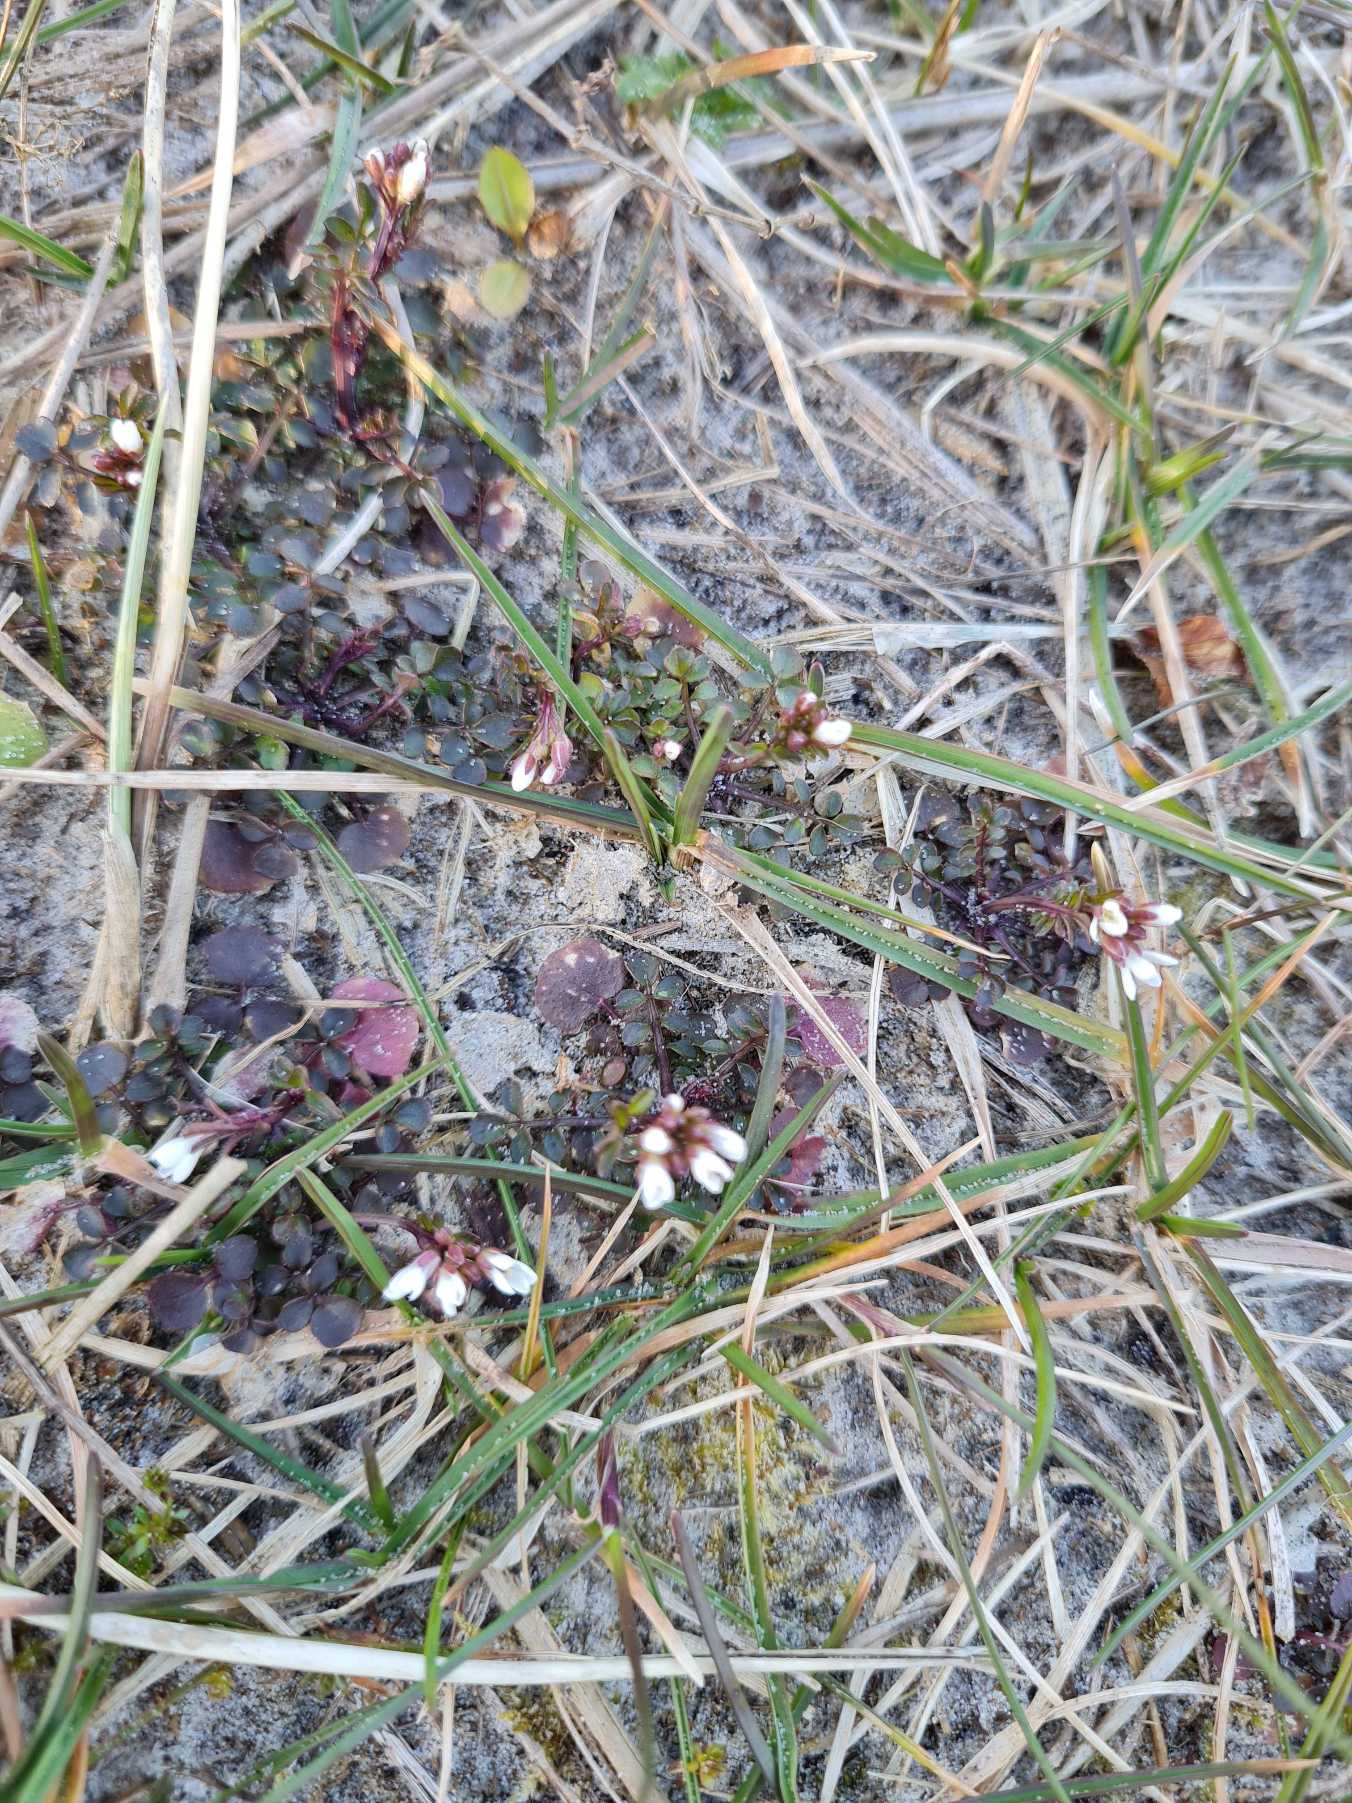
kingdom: Plantae
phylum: Tracheophyta
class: Magnoliopsida
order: Brassicales
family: Brassicaceae
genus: Cardamine
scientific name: Cardamine hirsuta
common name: Roset-springklap
